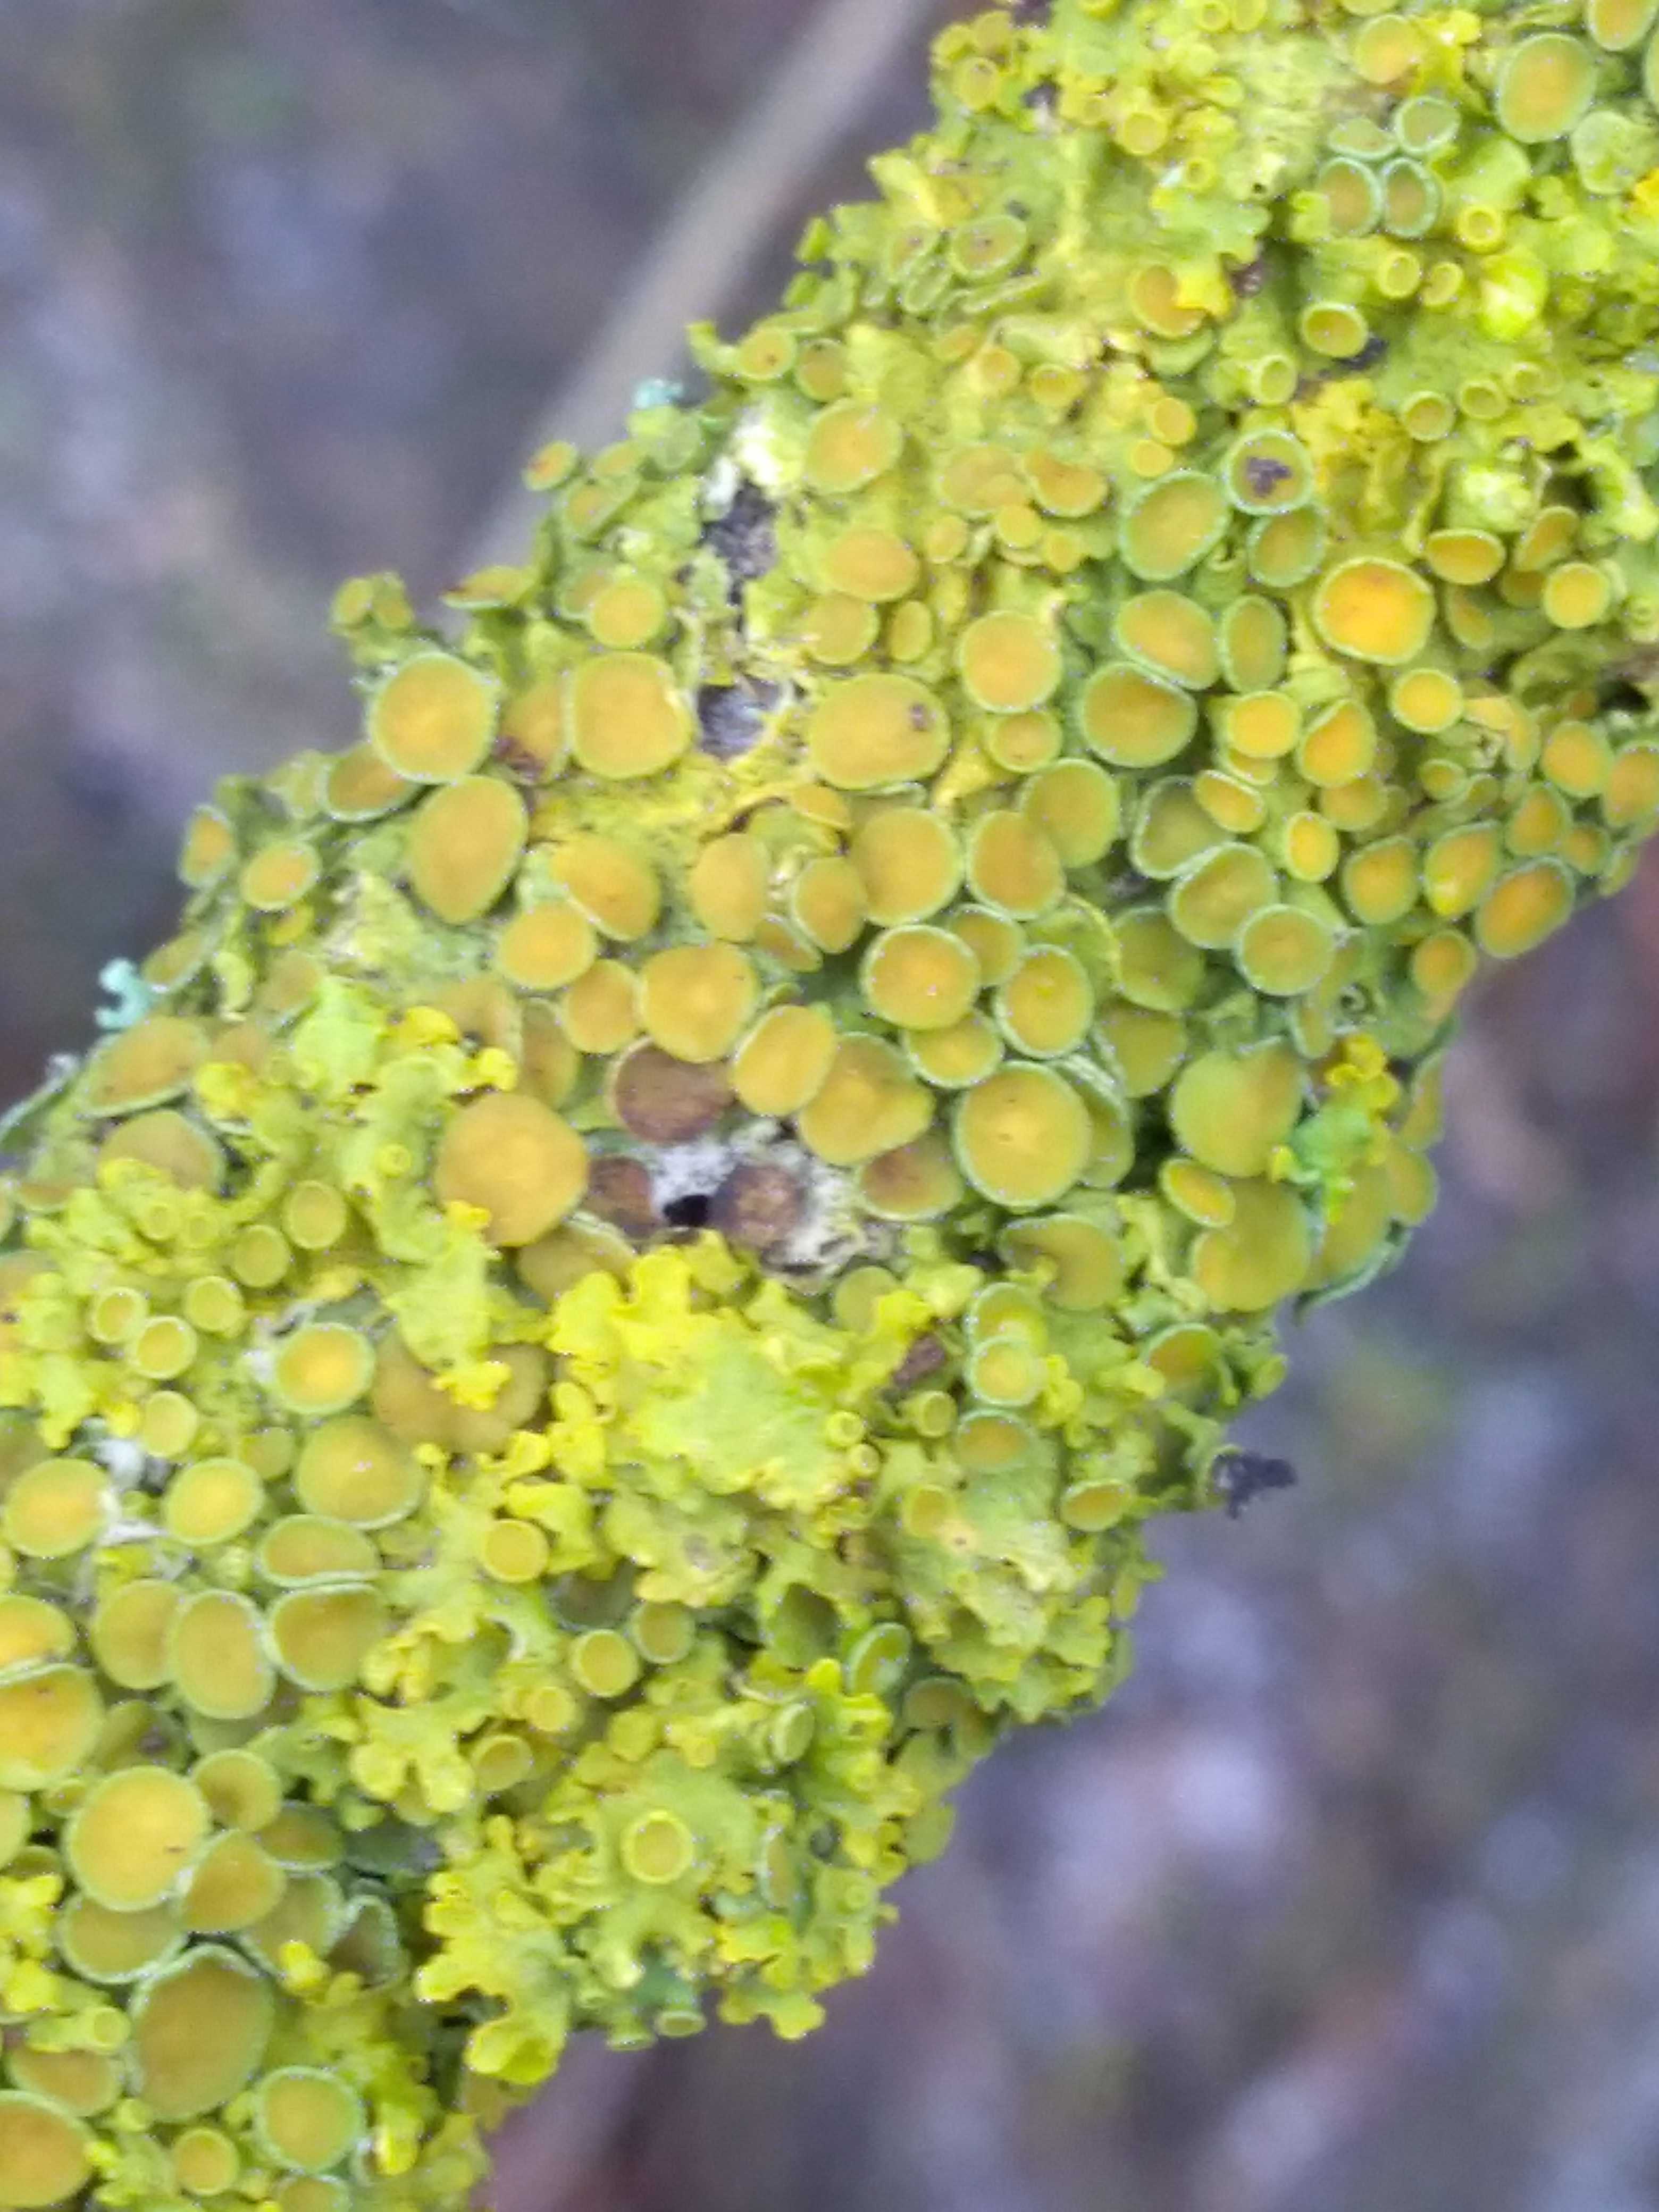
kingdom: Fungi
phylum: Ascomycota
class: Lecanoromycetes
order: Teloschistales
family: Teloschistaceae
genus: Xanthoria
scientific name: Xanthoria parietina
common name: almindelig væggelav
